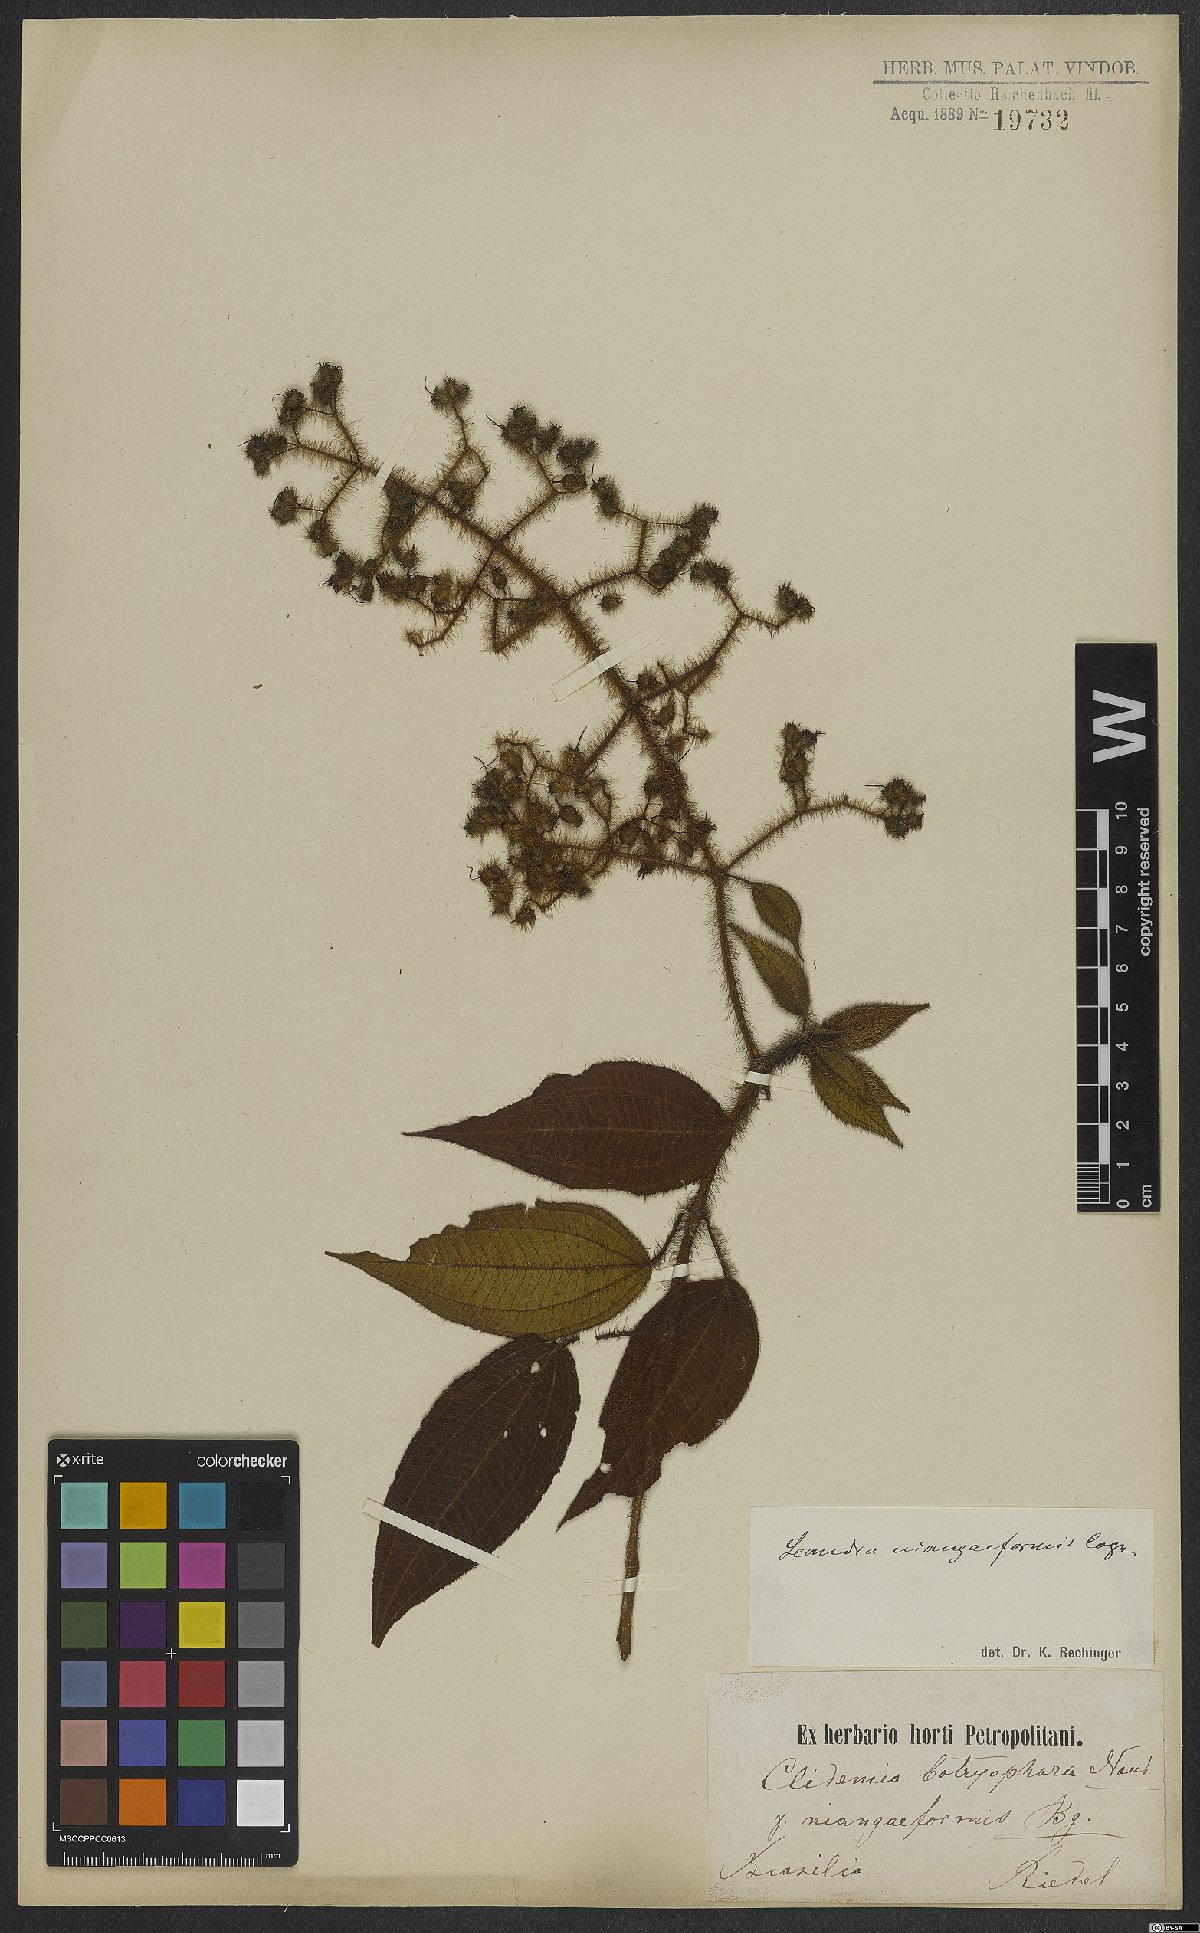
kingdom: Plantae
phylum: Tracheophyta
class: Magnoliopsida
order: Myrtales
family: Melastomataceae
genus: Miconia
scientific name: Miconia niangaeformis
